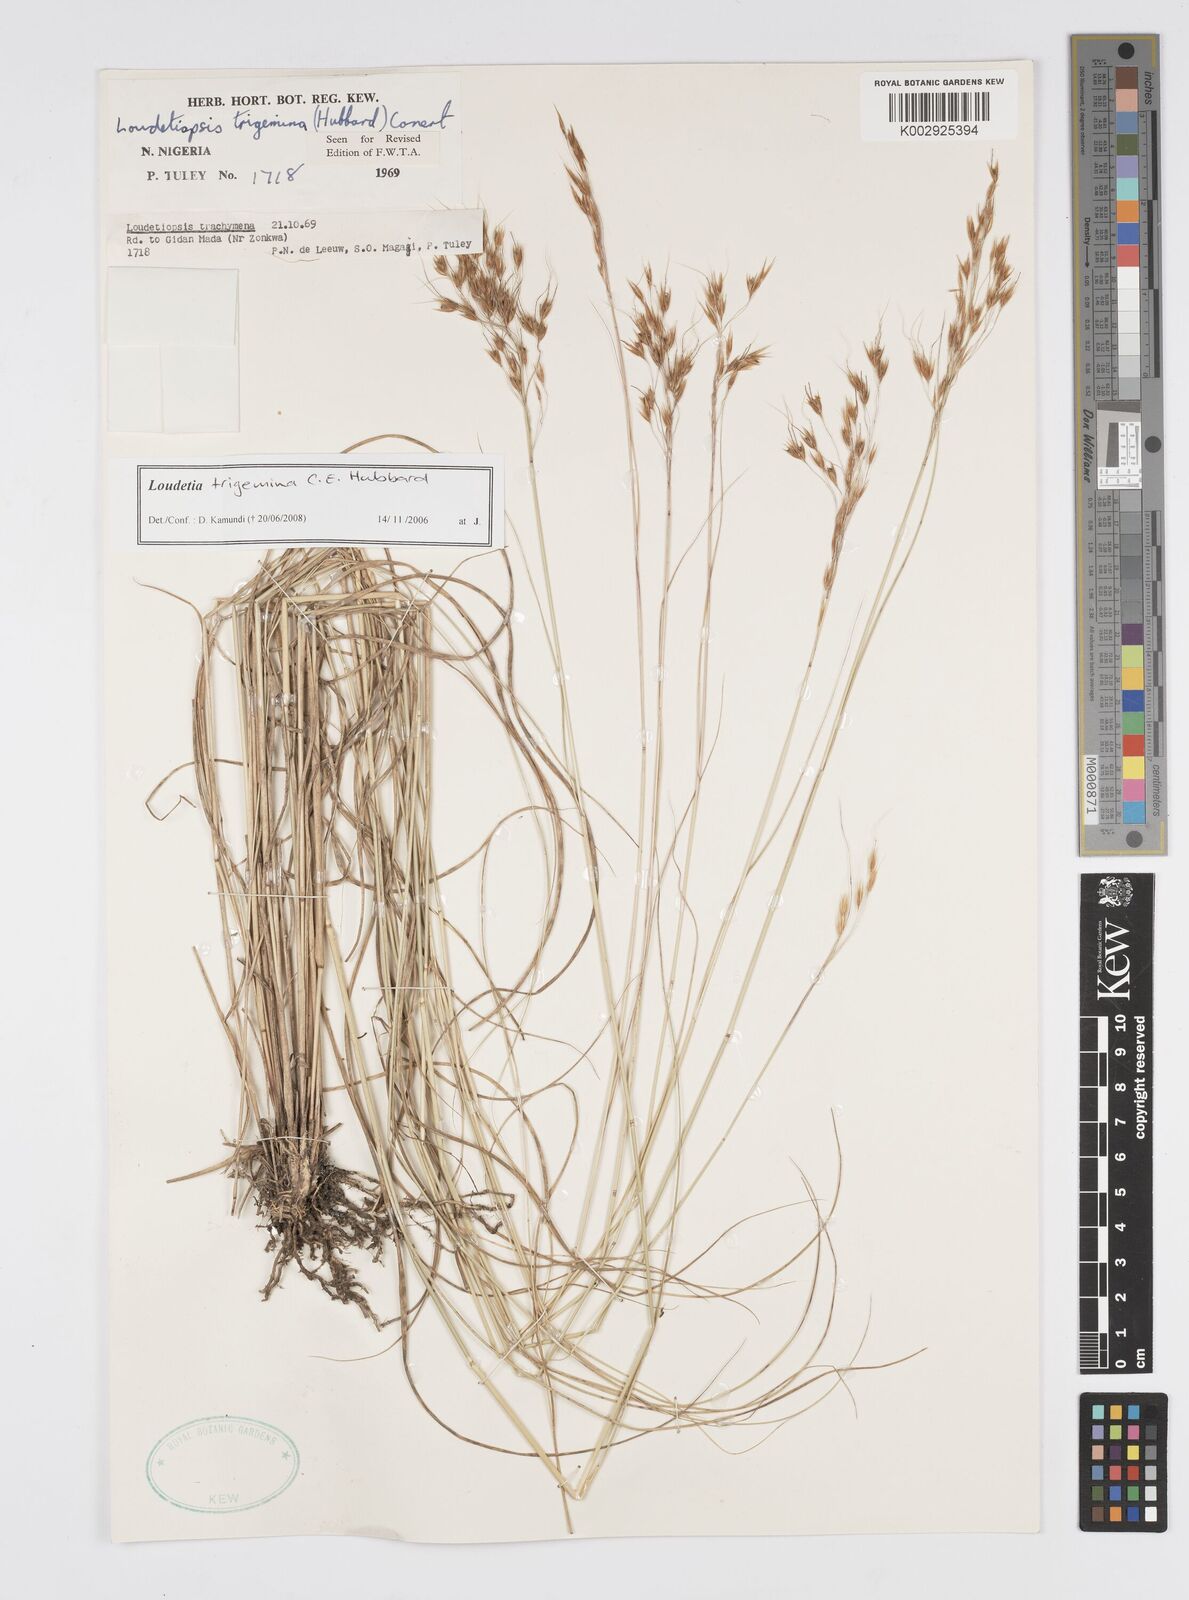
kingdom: Plantae
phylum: Tracheophyta
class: Liliopsida
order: Poales
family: Poaceae
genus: Loudetiopsis
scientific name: Loudetiopsis trigemina
